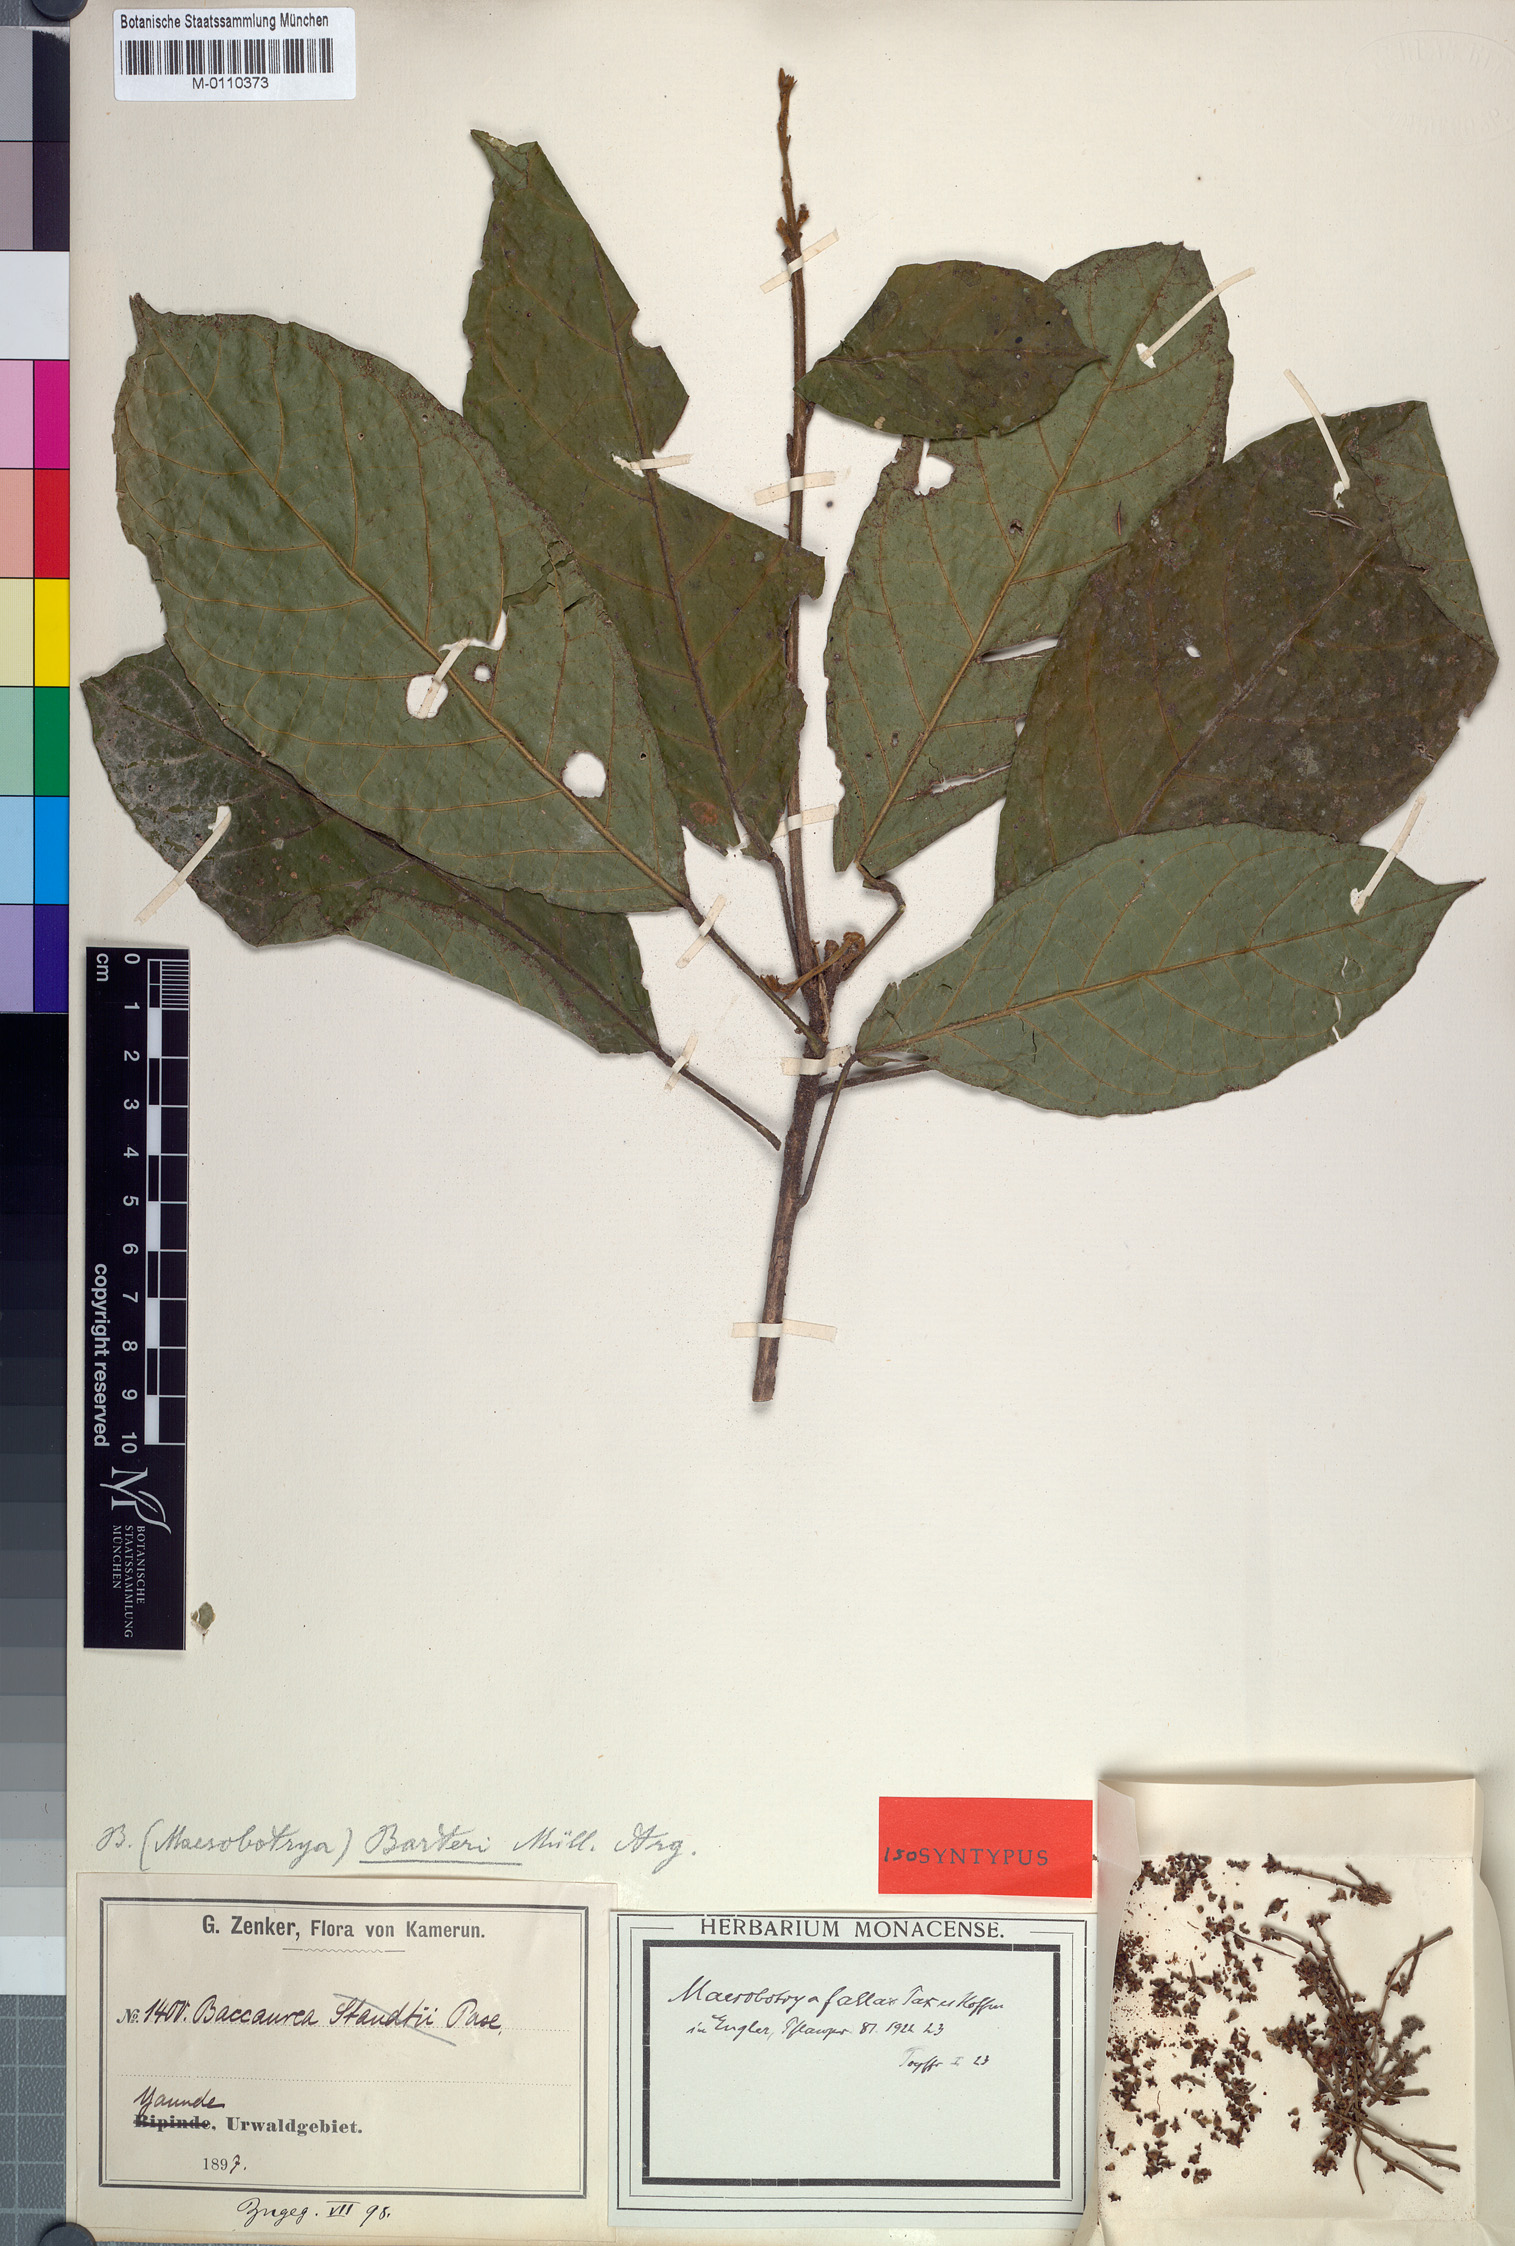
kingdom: Plantae
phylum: Tracheophyta
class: Magnoliopsida
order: Malpighiales
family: Phyllanthaceae
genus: Maesobotrya
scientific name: Maesobotrya fallax
